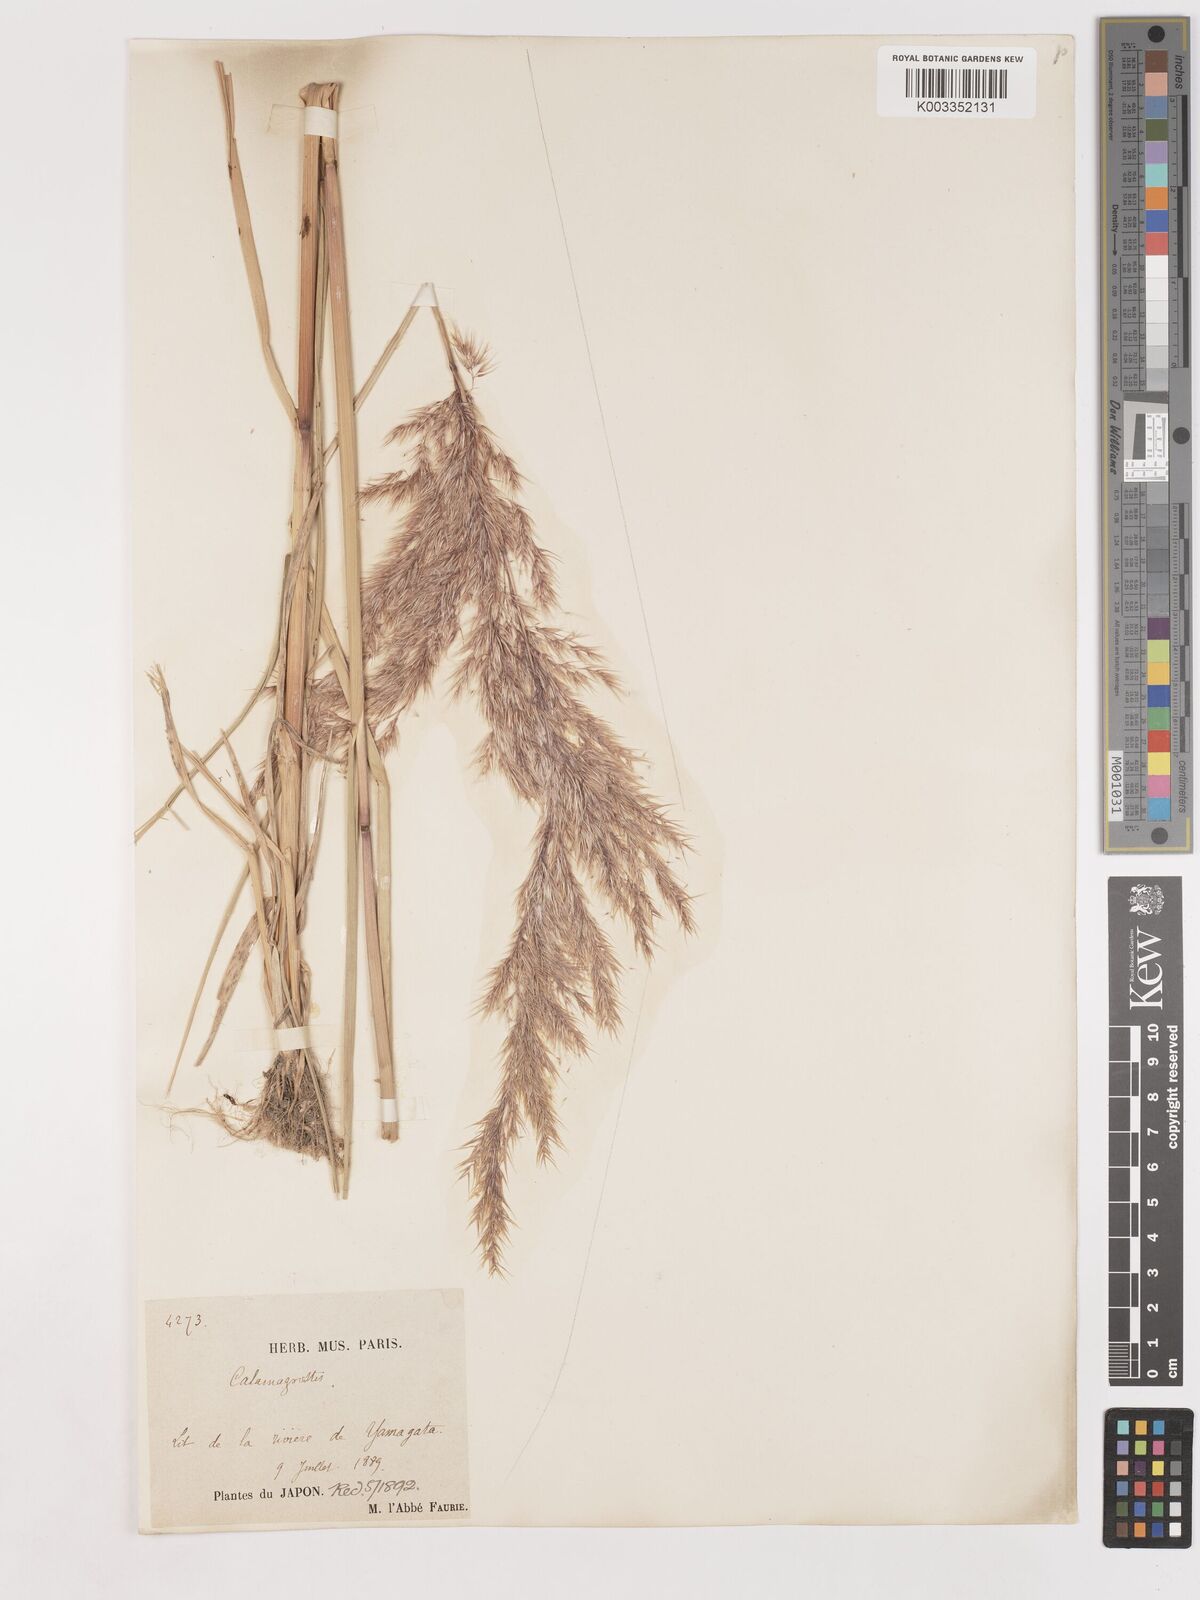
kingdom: Plantae
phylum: Tracheophyta
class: Liliopsida
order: Poales
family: Poaceae
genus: Calamagrostis
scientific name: Calamagrostis pseudophragmites
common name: Coastal small-reed
